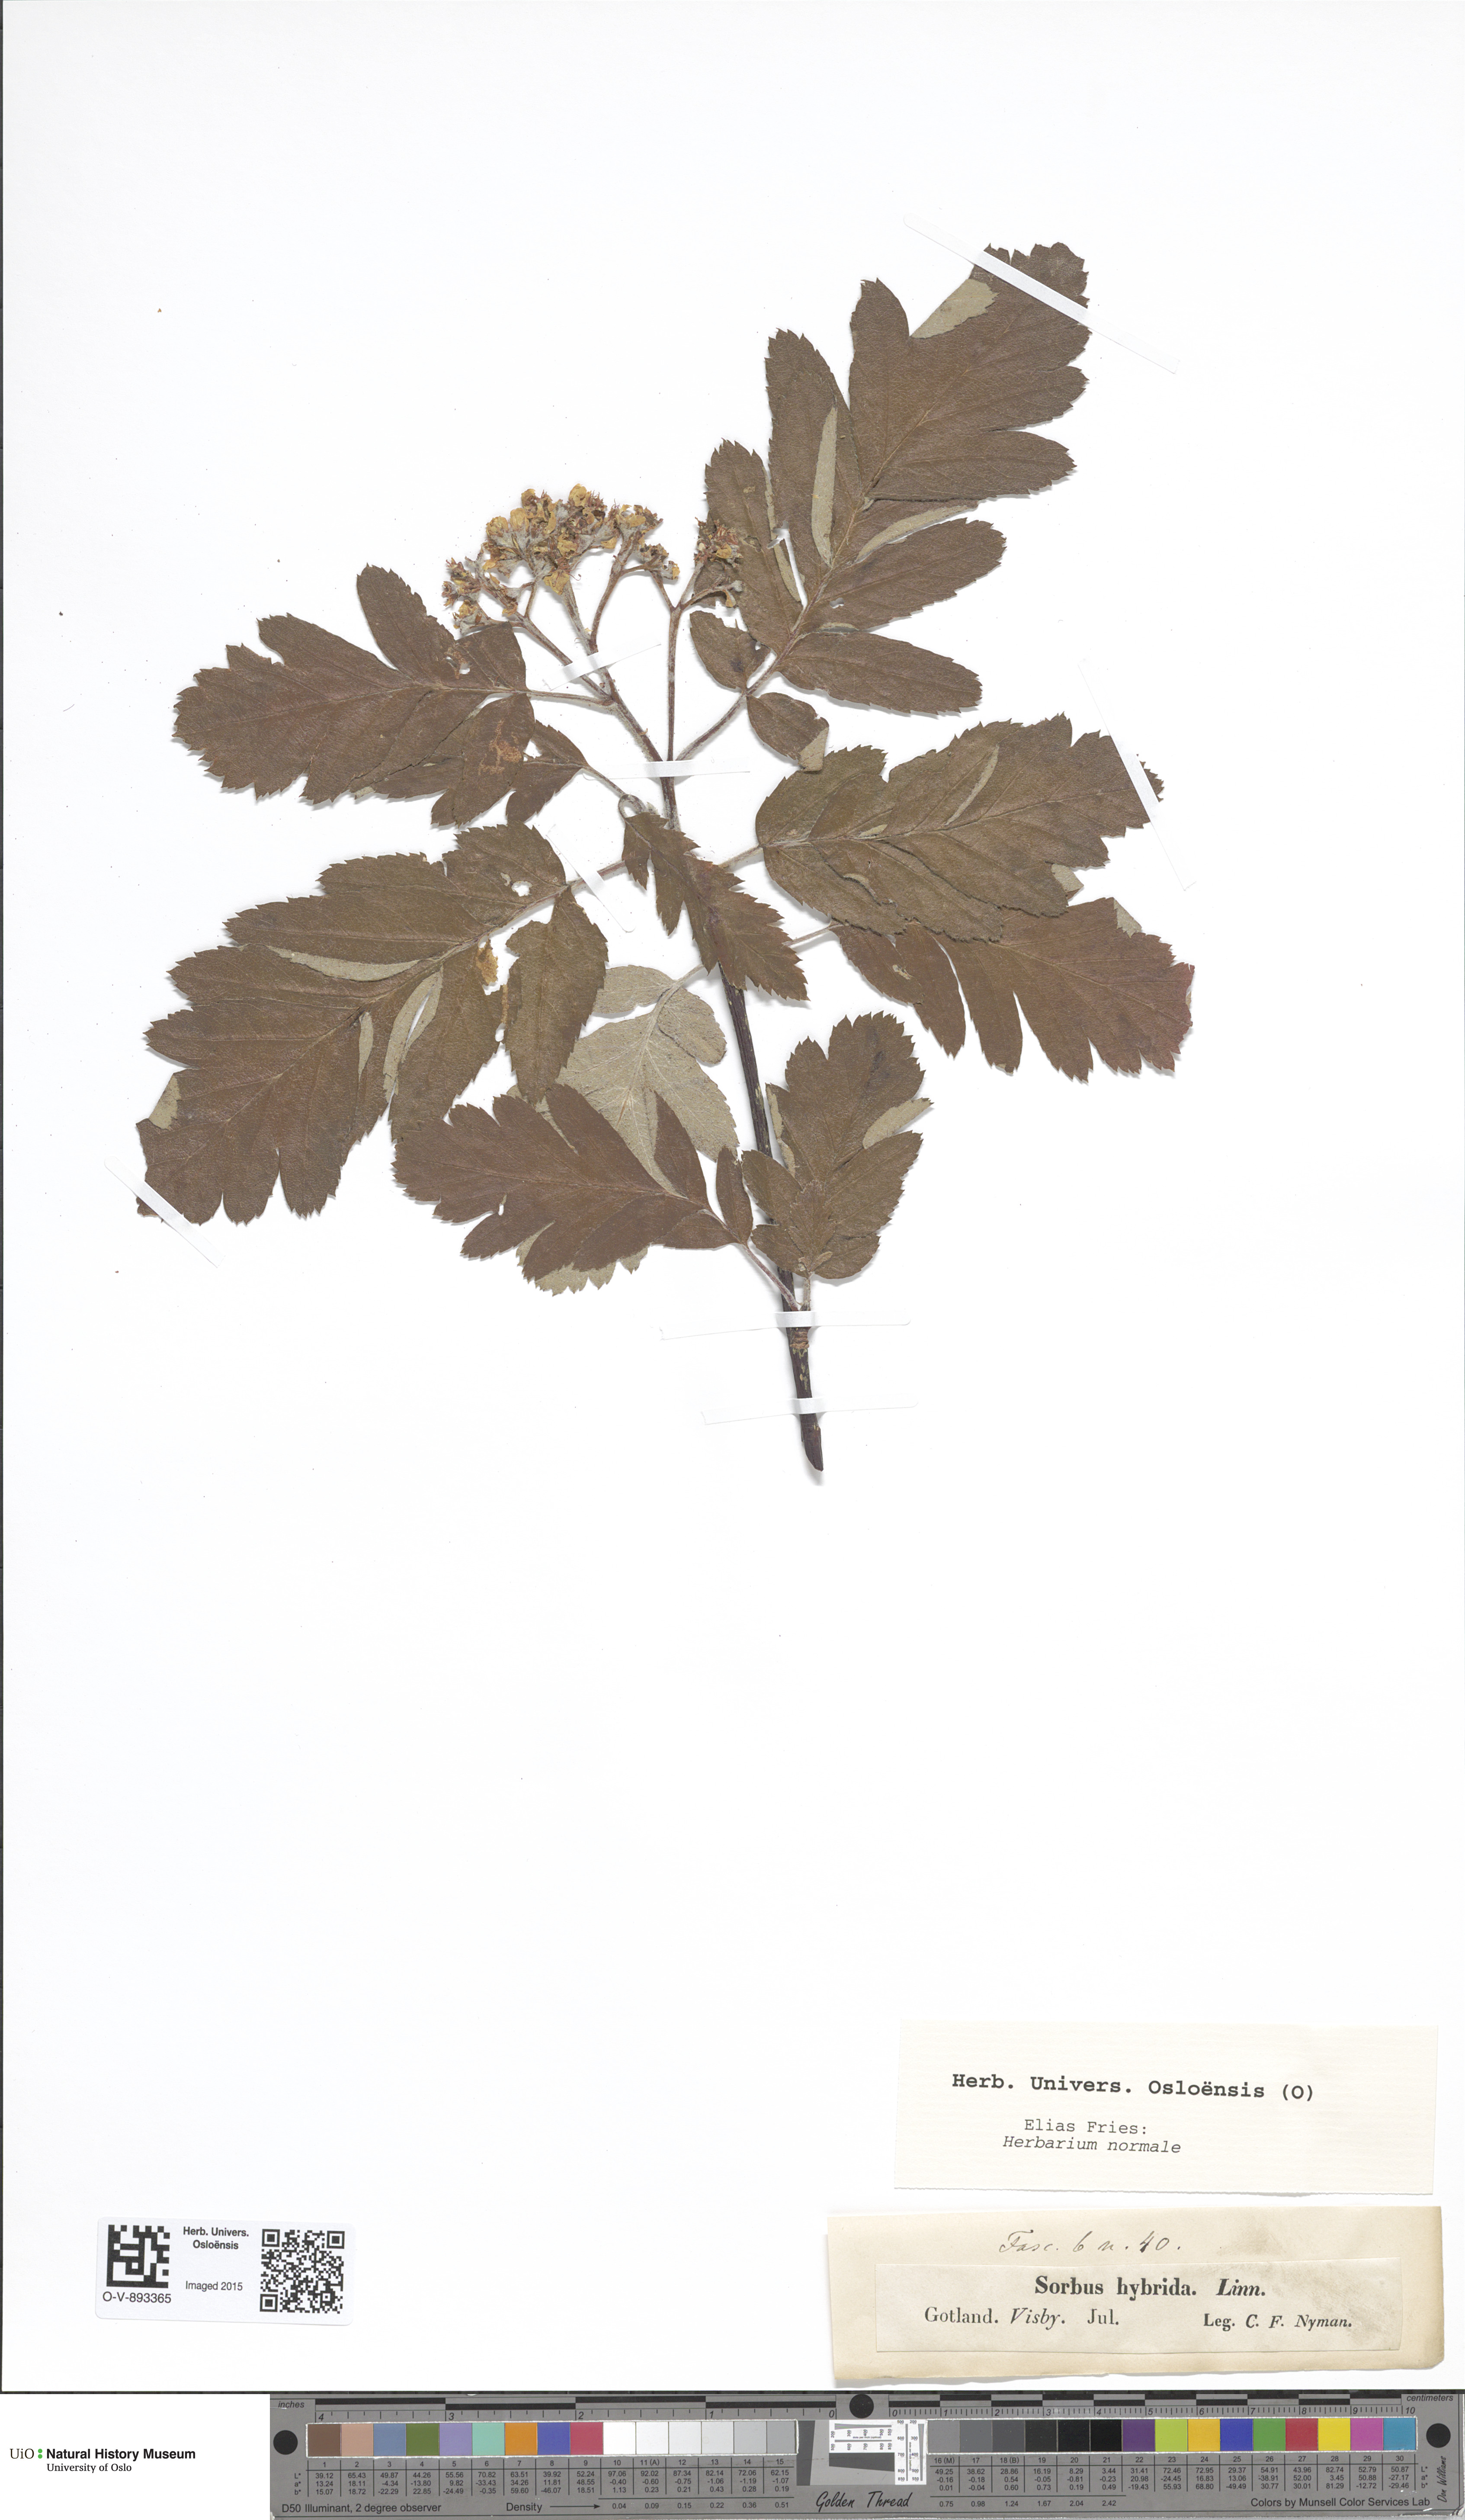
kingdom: Plantae
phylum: Tracheophyta
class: Magnoliopsida
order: Rosales
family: Rosaceae
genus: Hedlundia
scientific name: Hedlundia hybrida
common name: Swedish service-tree
